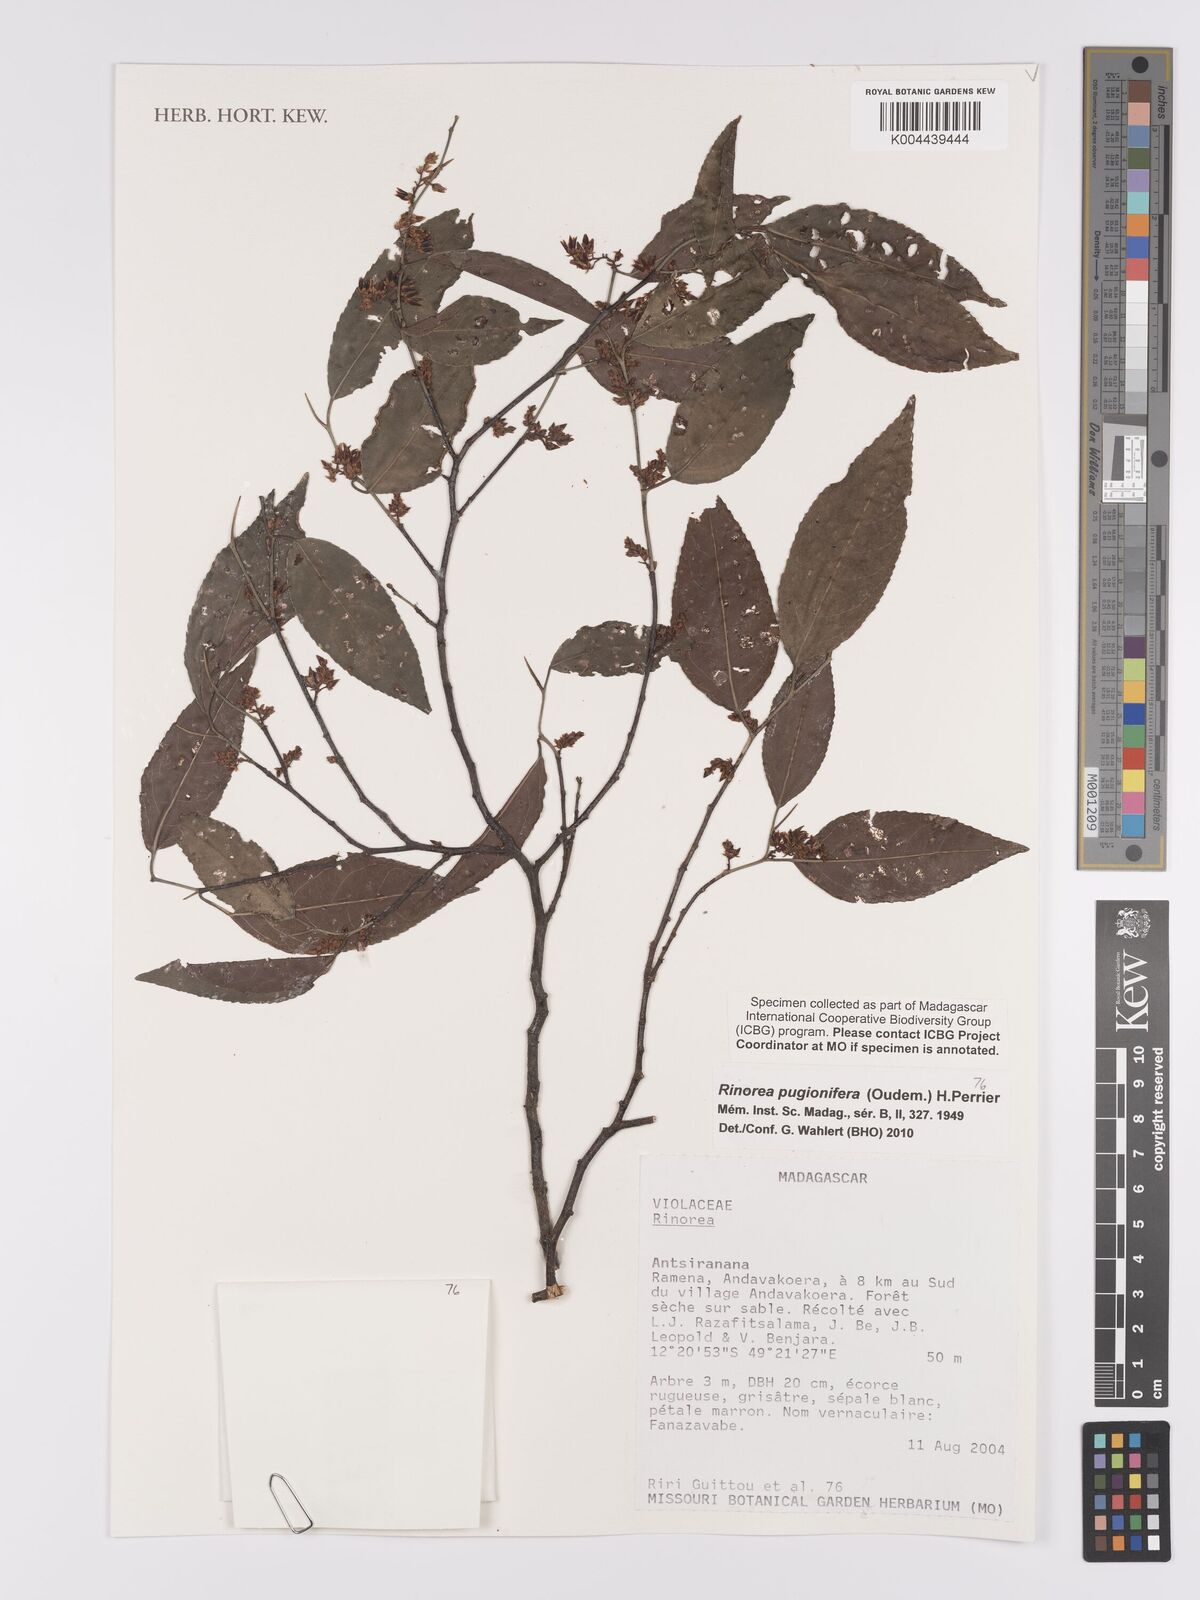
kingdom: Plantae
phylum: Tracheophyta
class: Magnoliopsida
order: Malpighiales
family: Violaceae
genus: Rinorea
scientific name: Rinorea pugionifera
